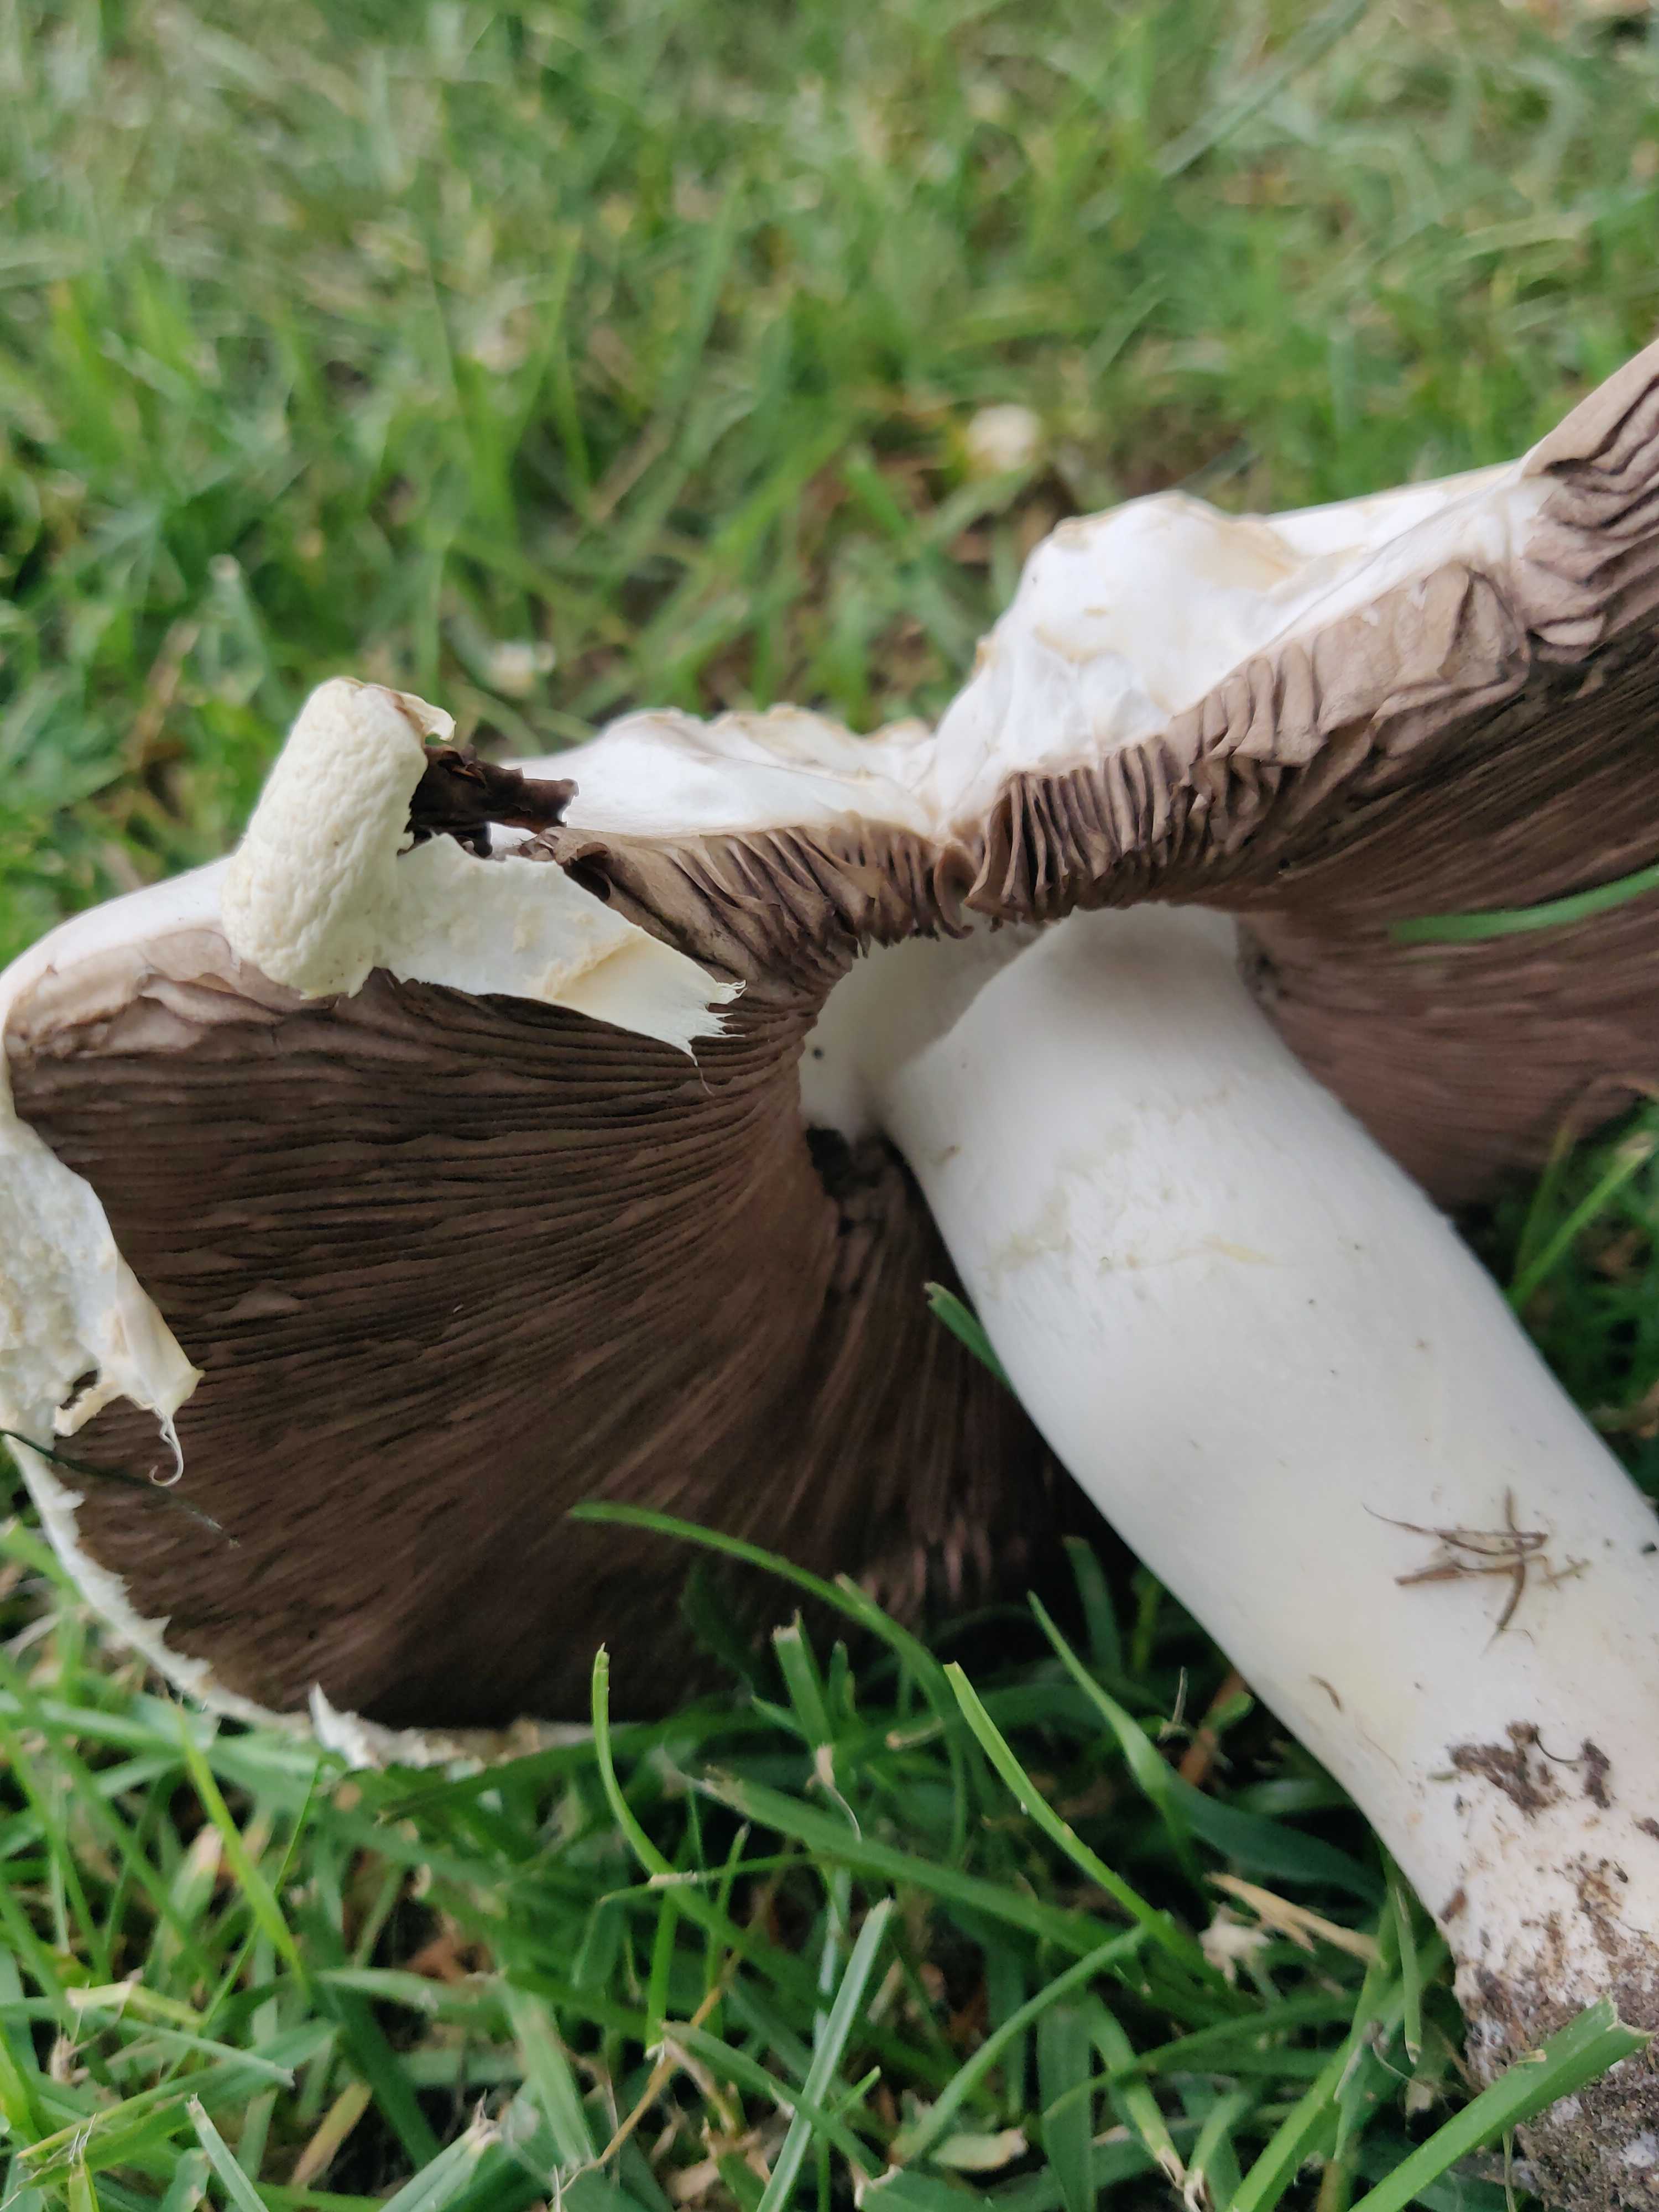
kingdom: Fungi
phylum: Basidiomycota
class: Agaricomycetes
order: Agaricales
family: Agaricaceae
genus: Agaricus
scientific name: Agaricus
